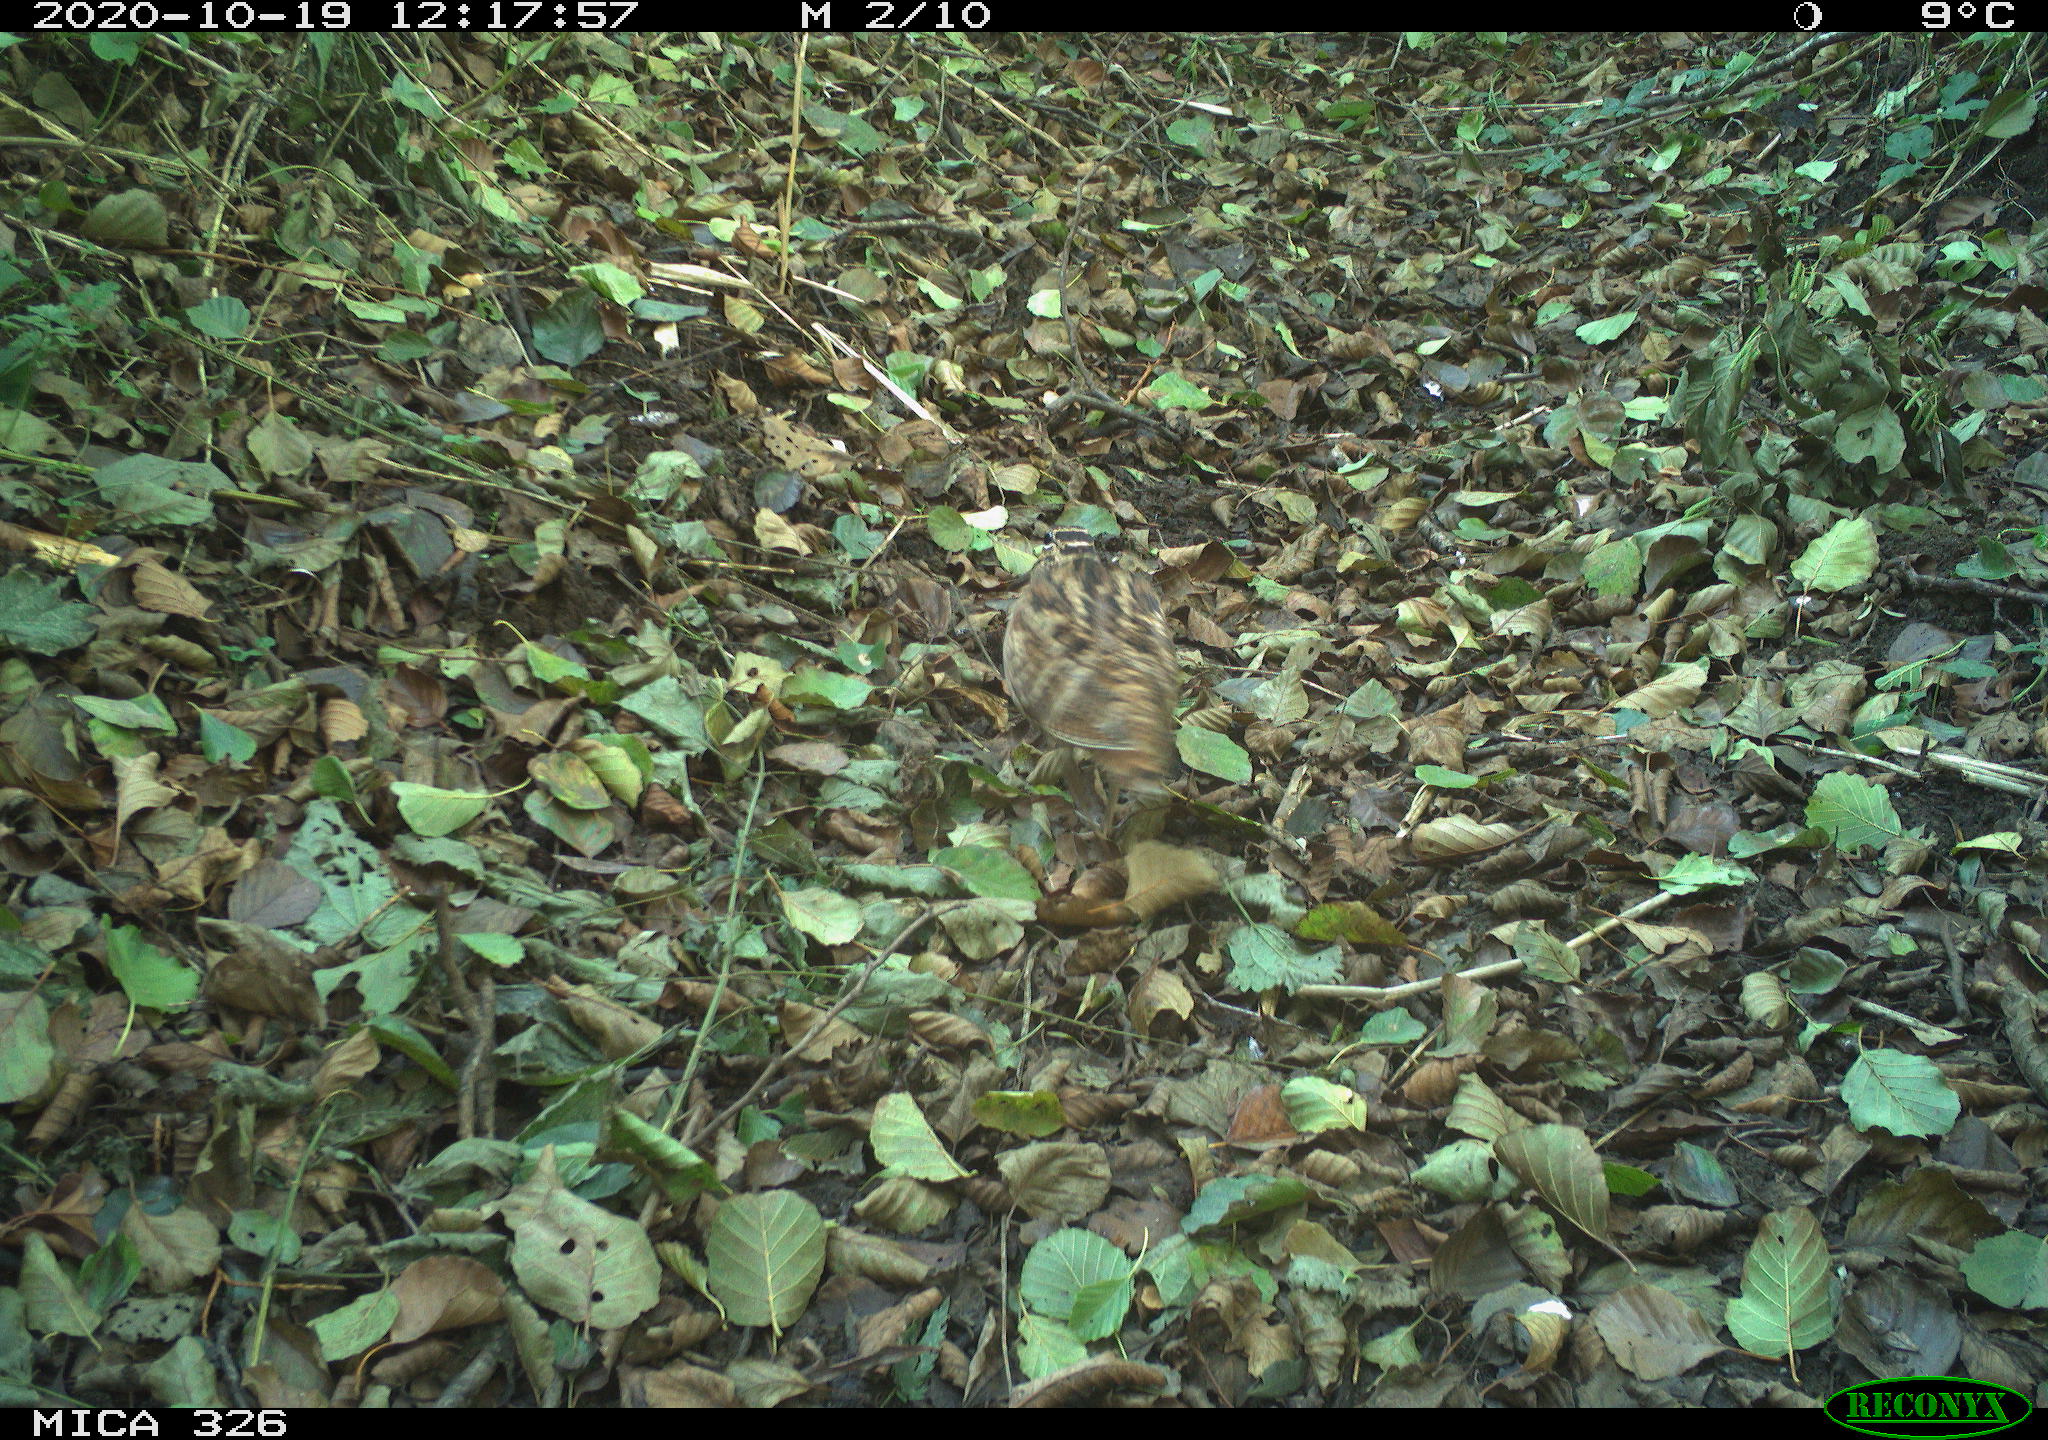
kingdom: Animalia
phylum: Chordata
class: Aves
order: Charadriiformes
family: Scolopacidae
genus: Scolopax
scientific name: Scolopax rusticola
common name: Eurasian woodcock
